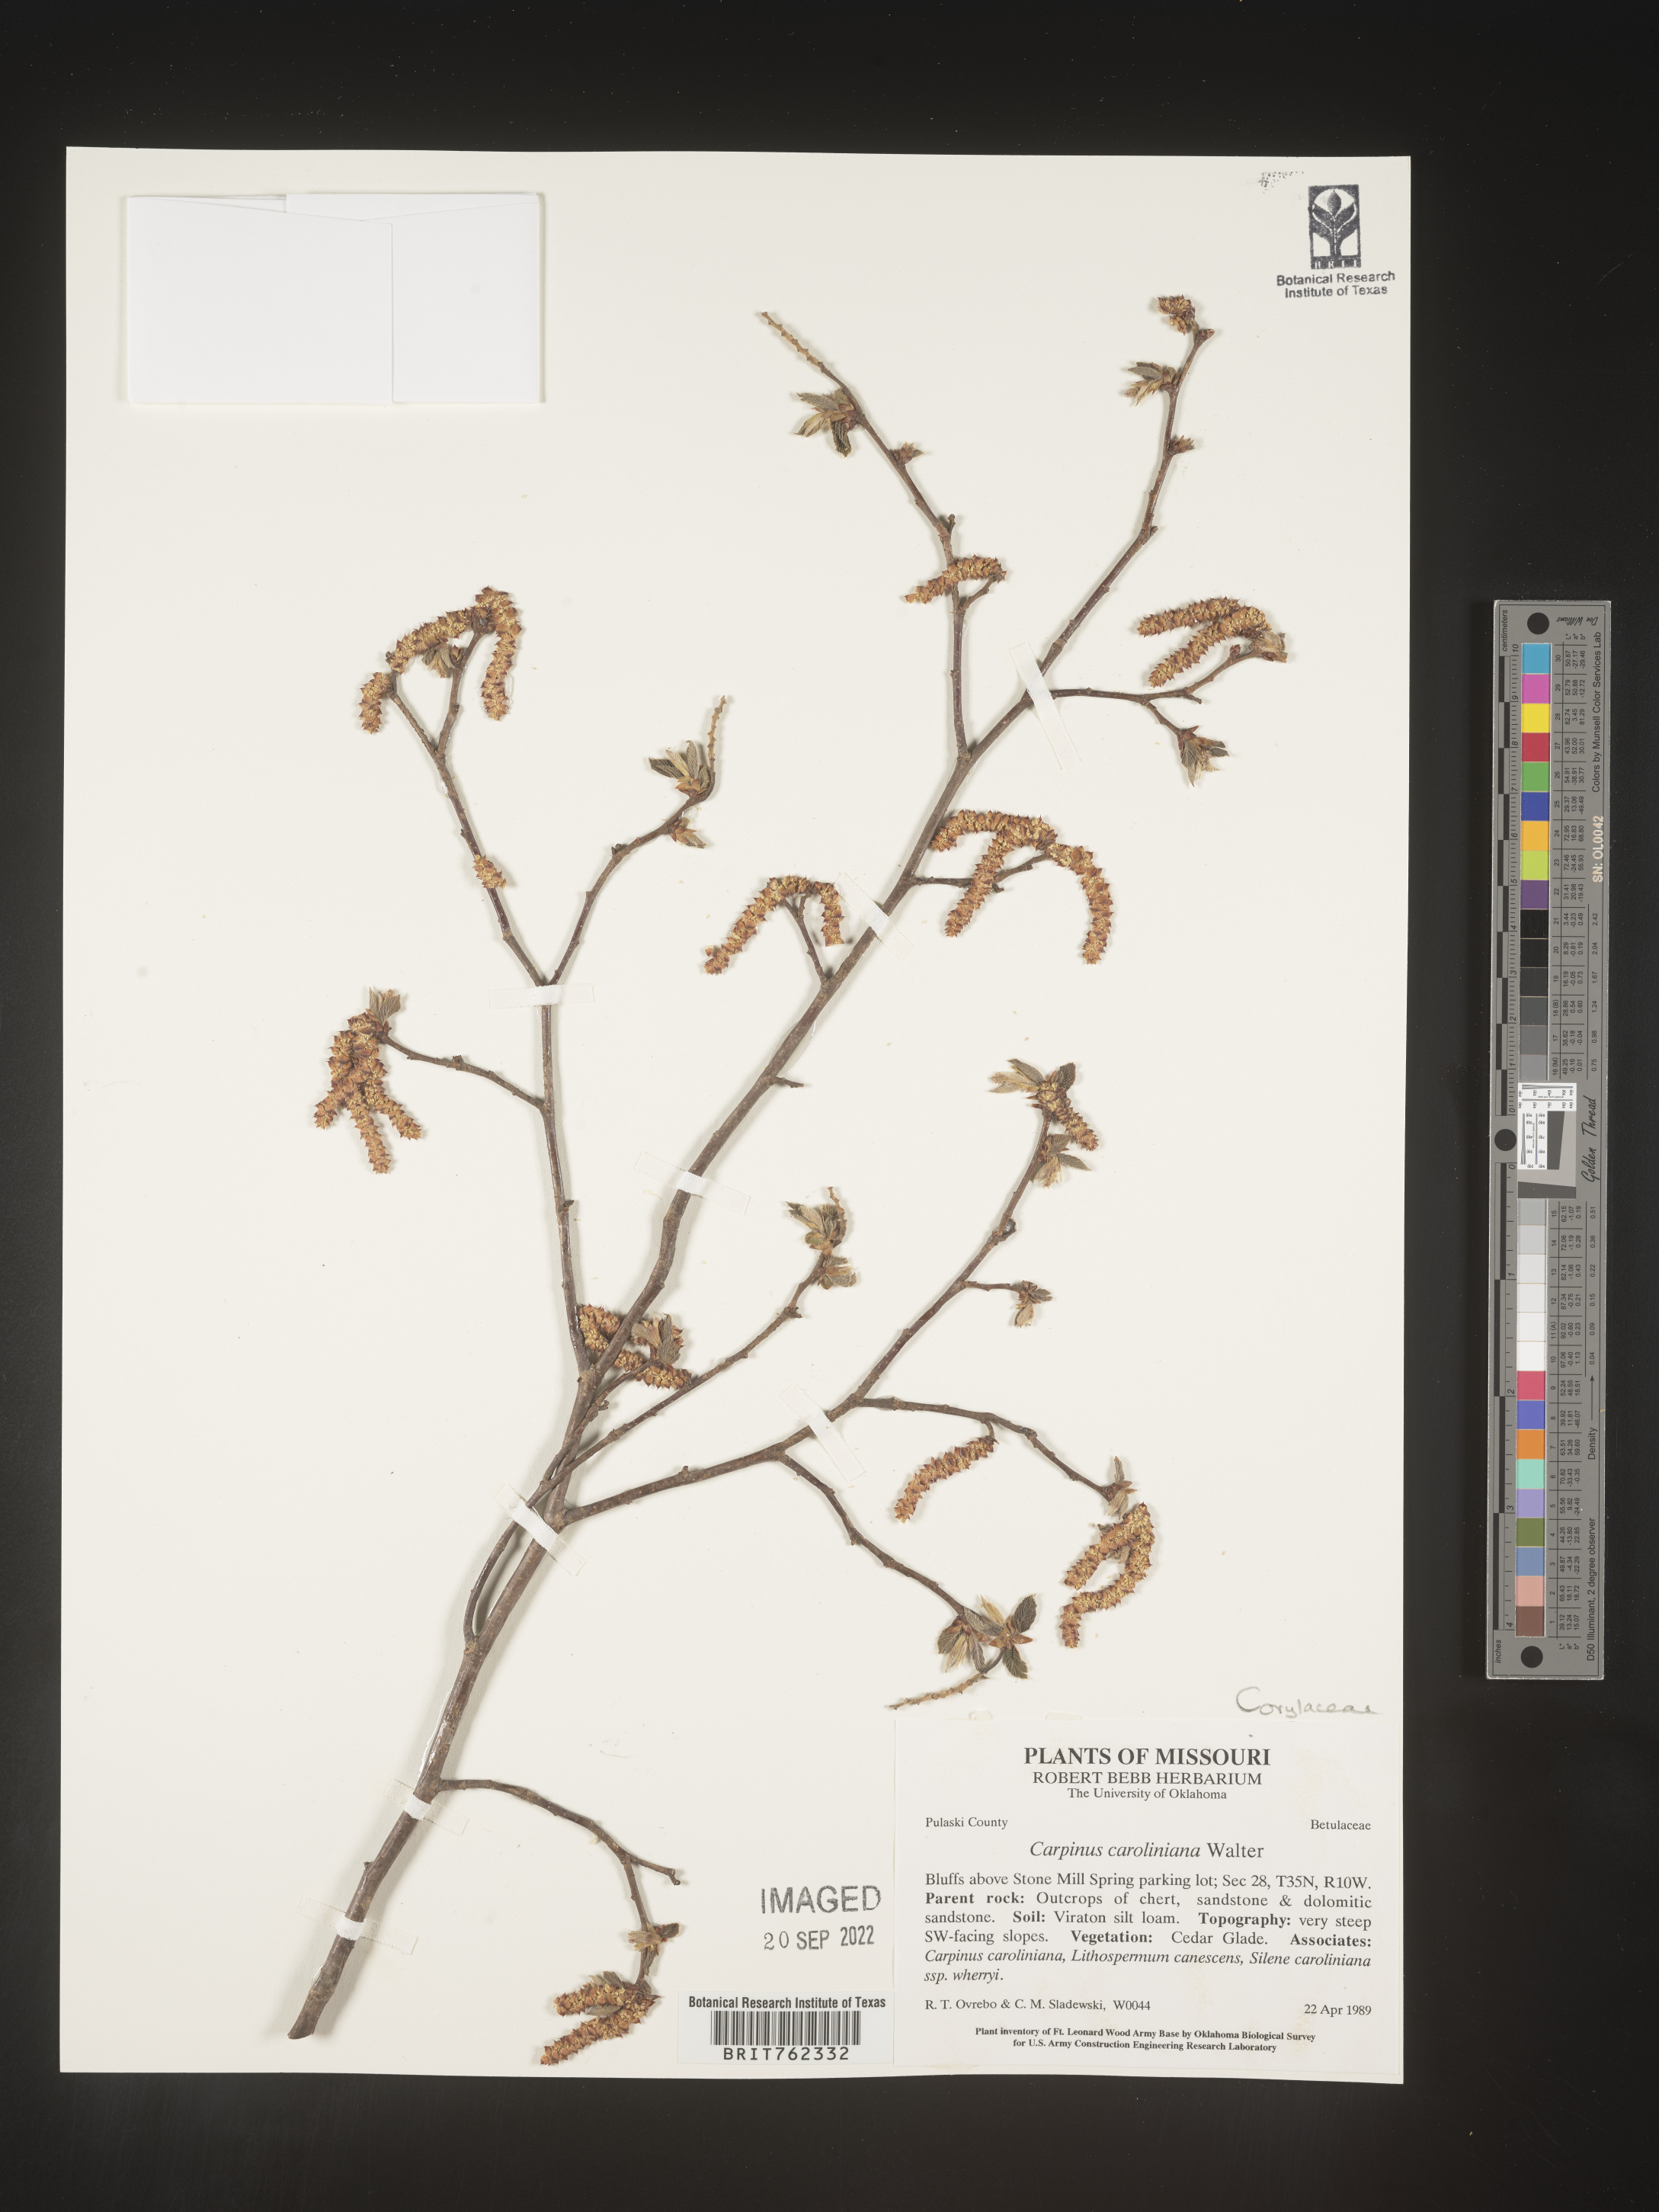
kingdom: Plantae
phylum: Tracheophyta
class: Magnoliopsida
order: Fagales
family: Betulaceae
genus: Carpinus
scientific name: Carpinus caroliniana
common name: American hornbeam
